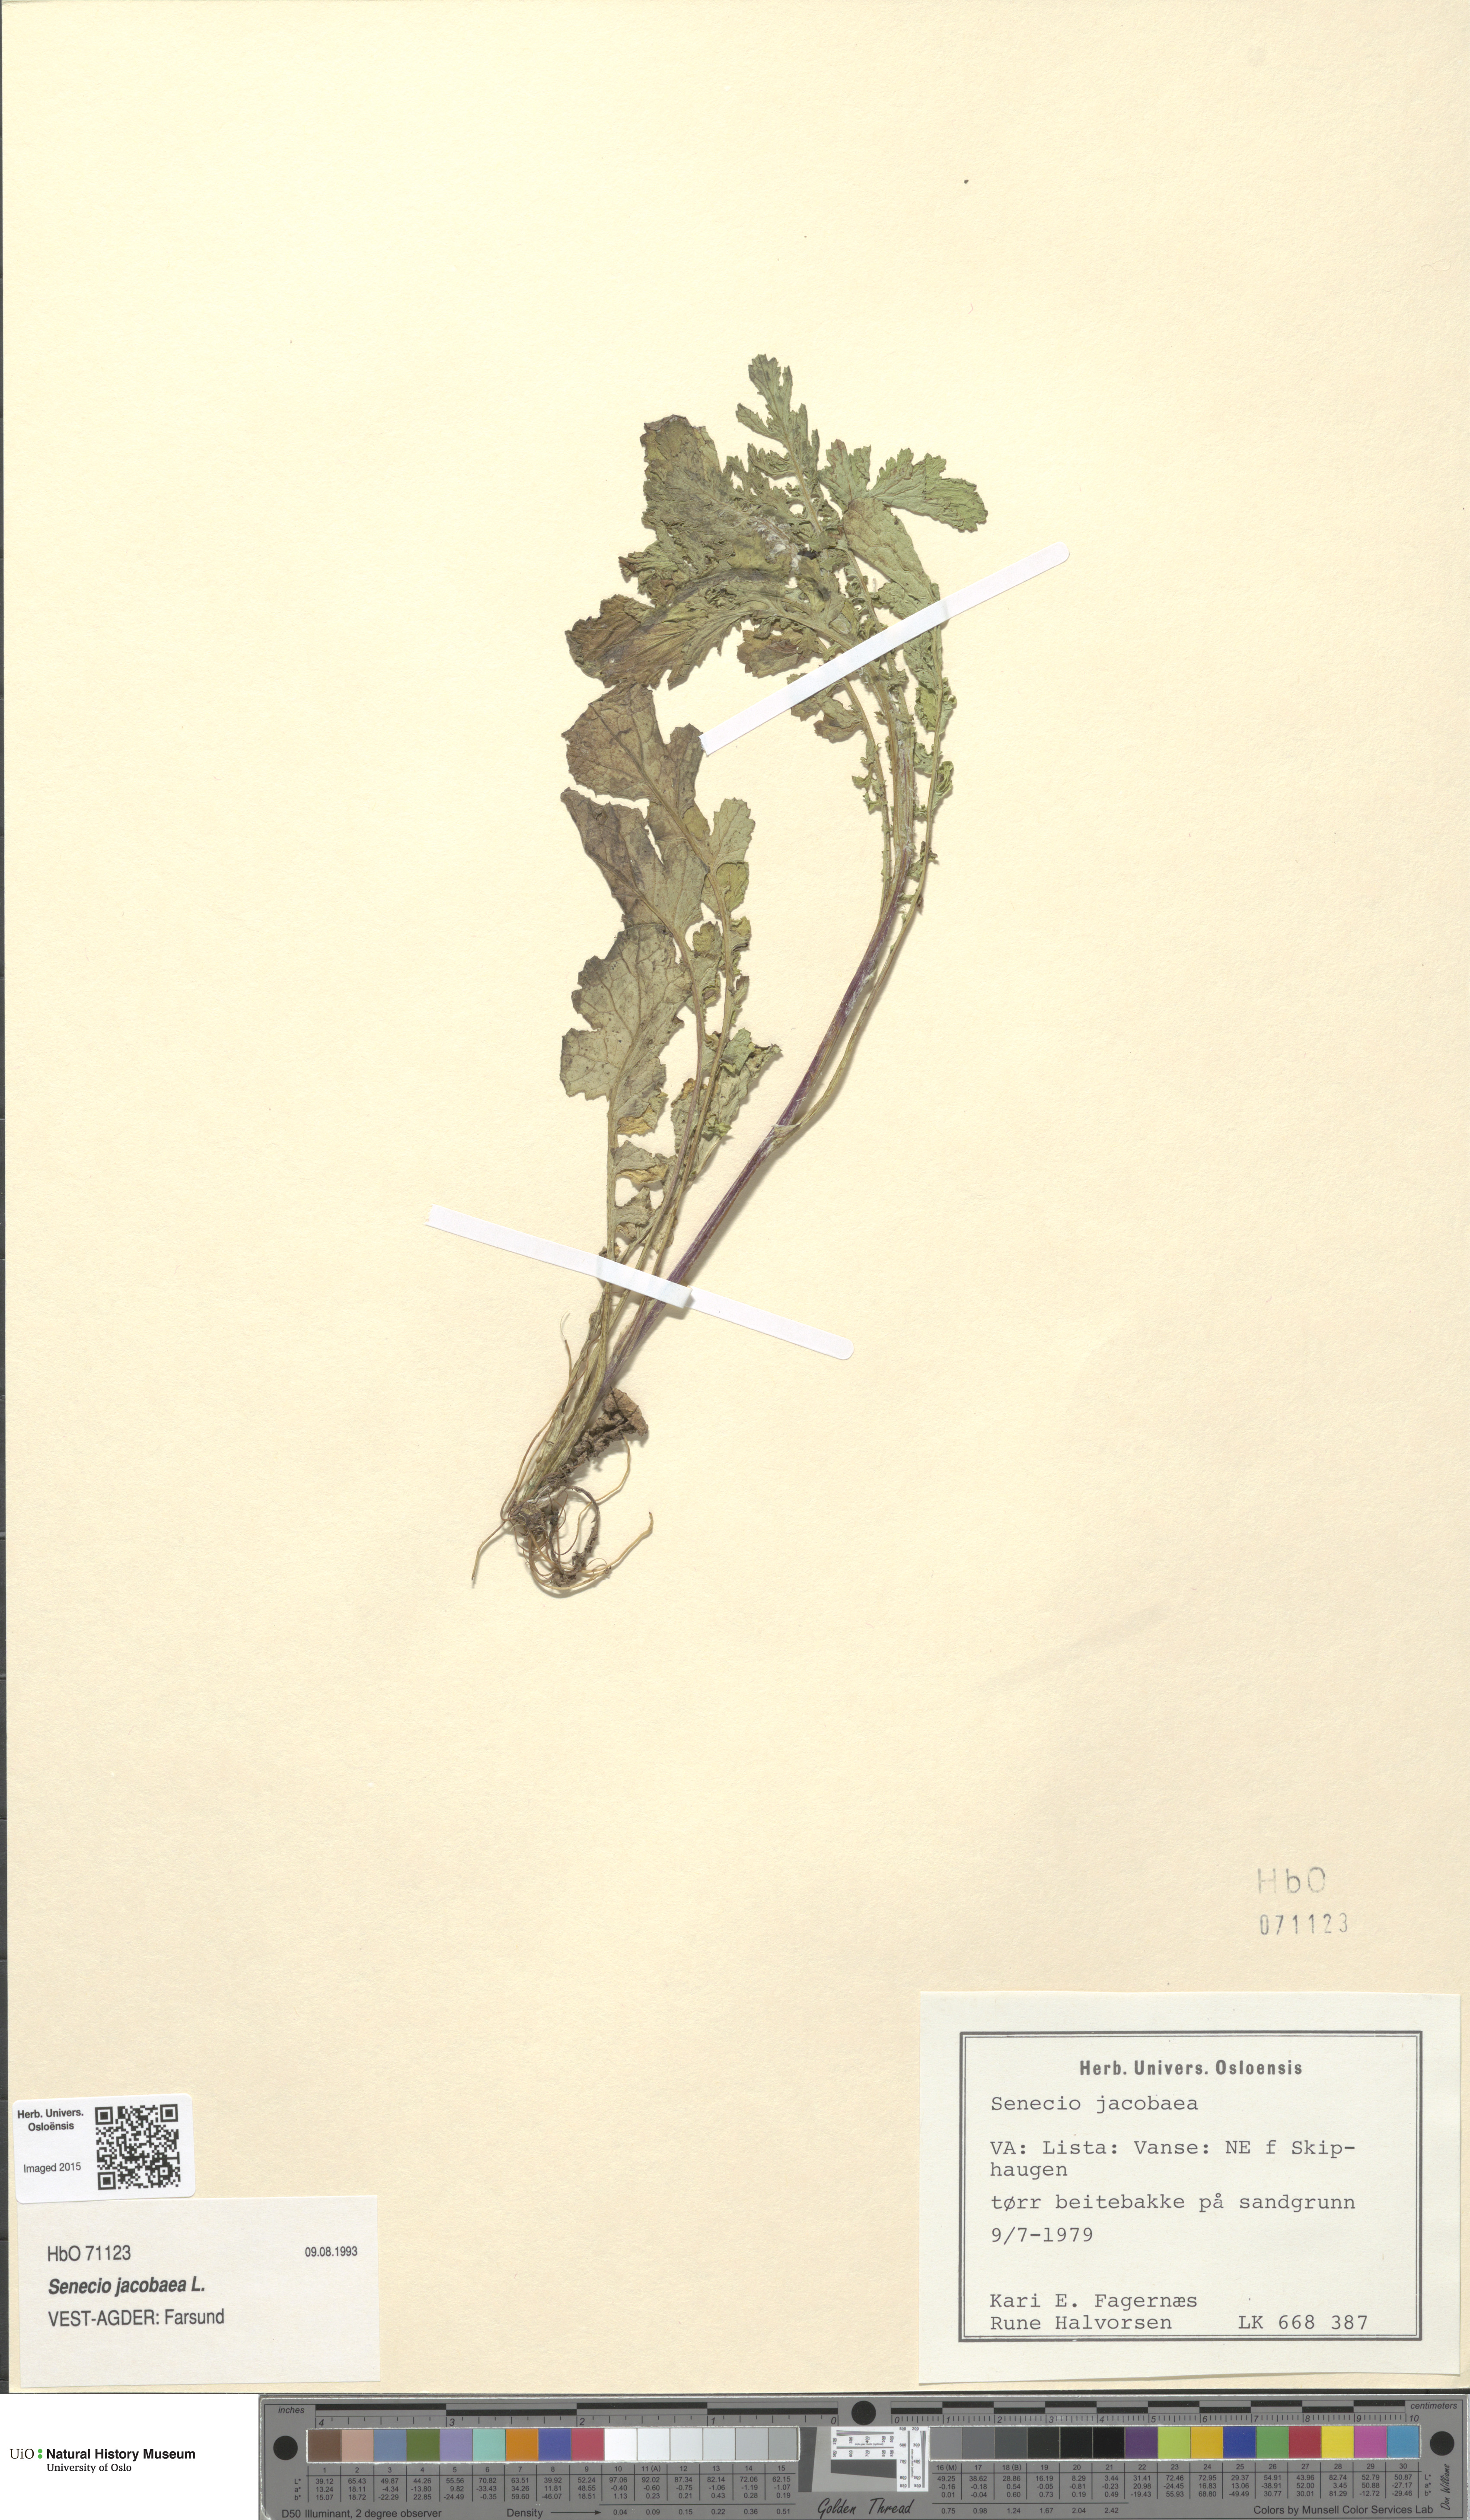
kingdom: Plantae
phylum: Tracheophyta
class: Magnoliopsida
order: Asterales
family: Asteraceae
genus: Jacobaea
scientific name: Jacobaea vulgaris
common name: Stinking willie
